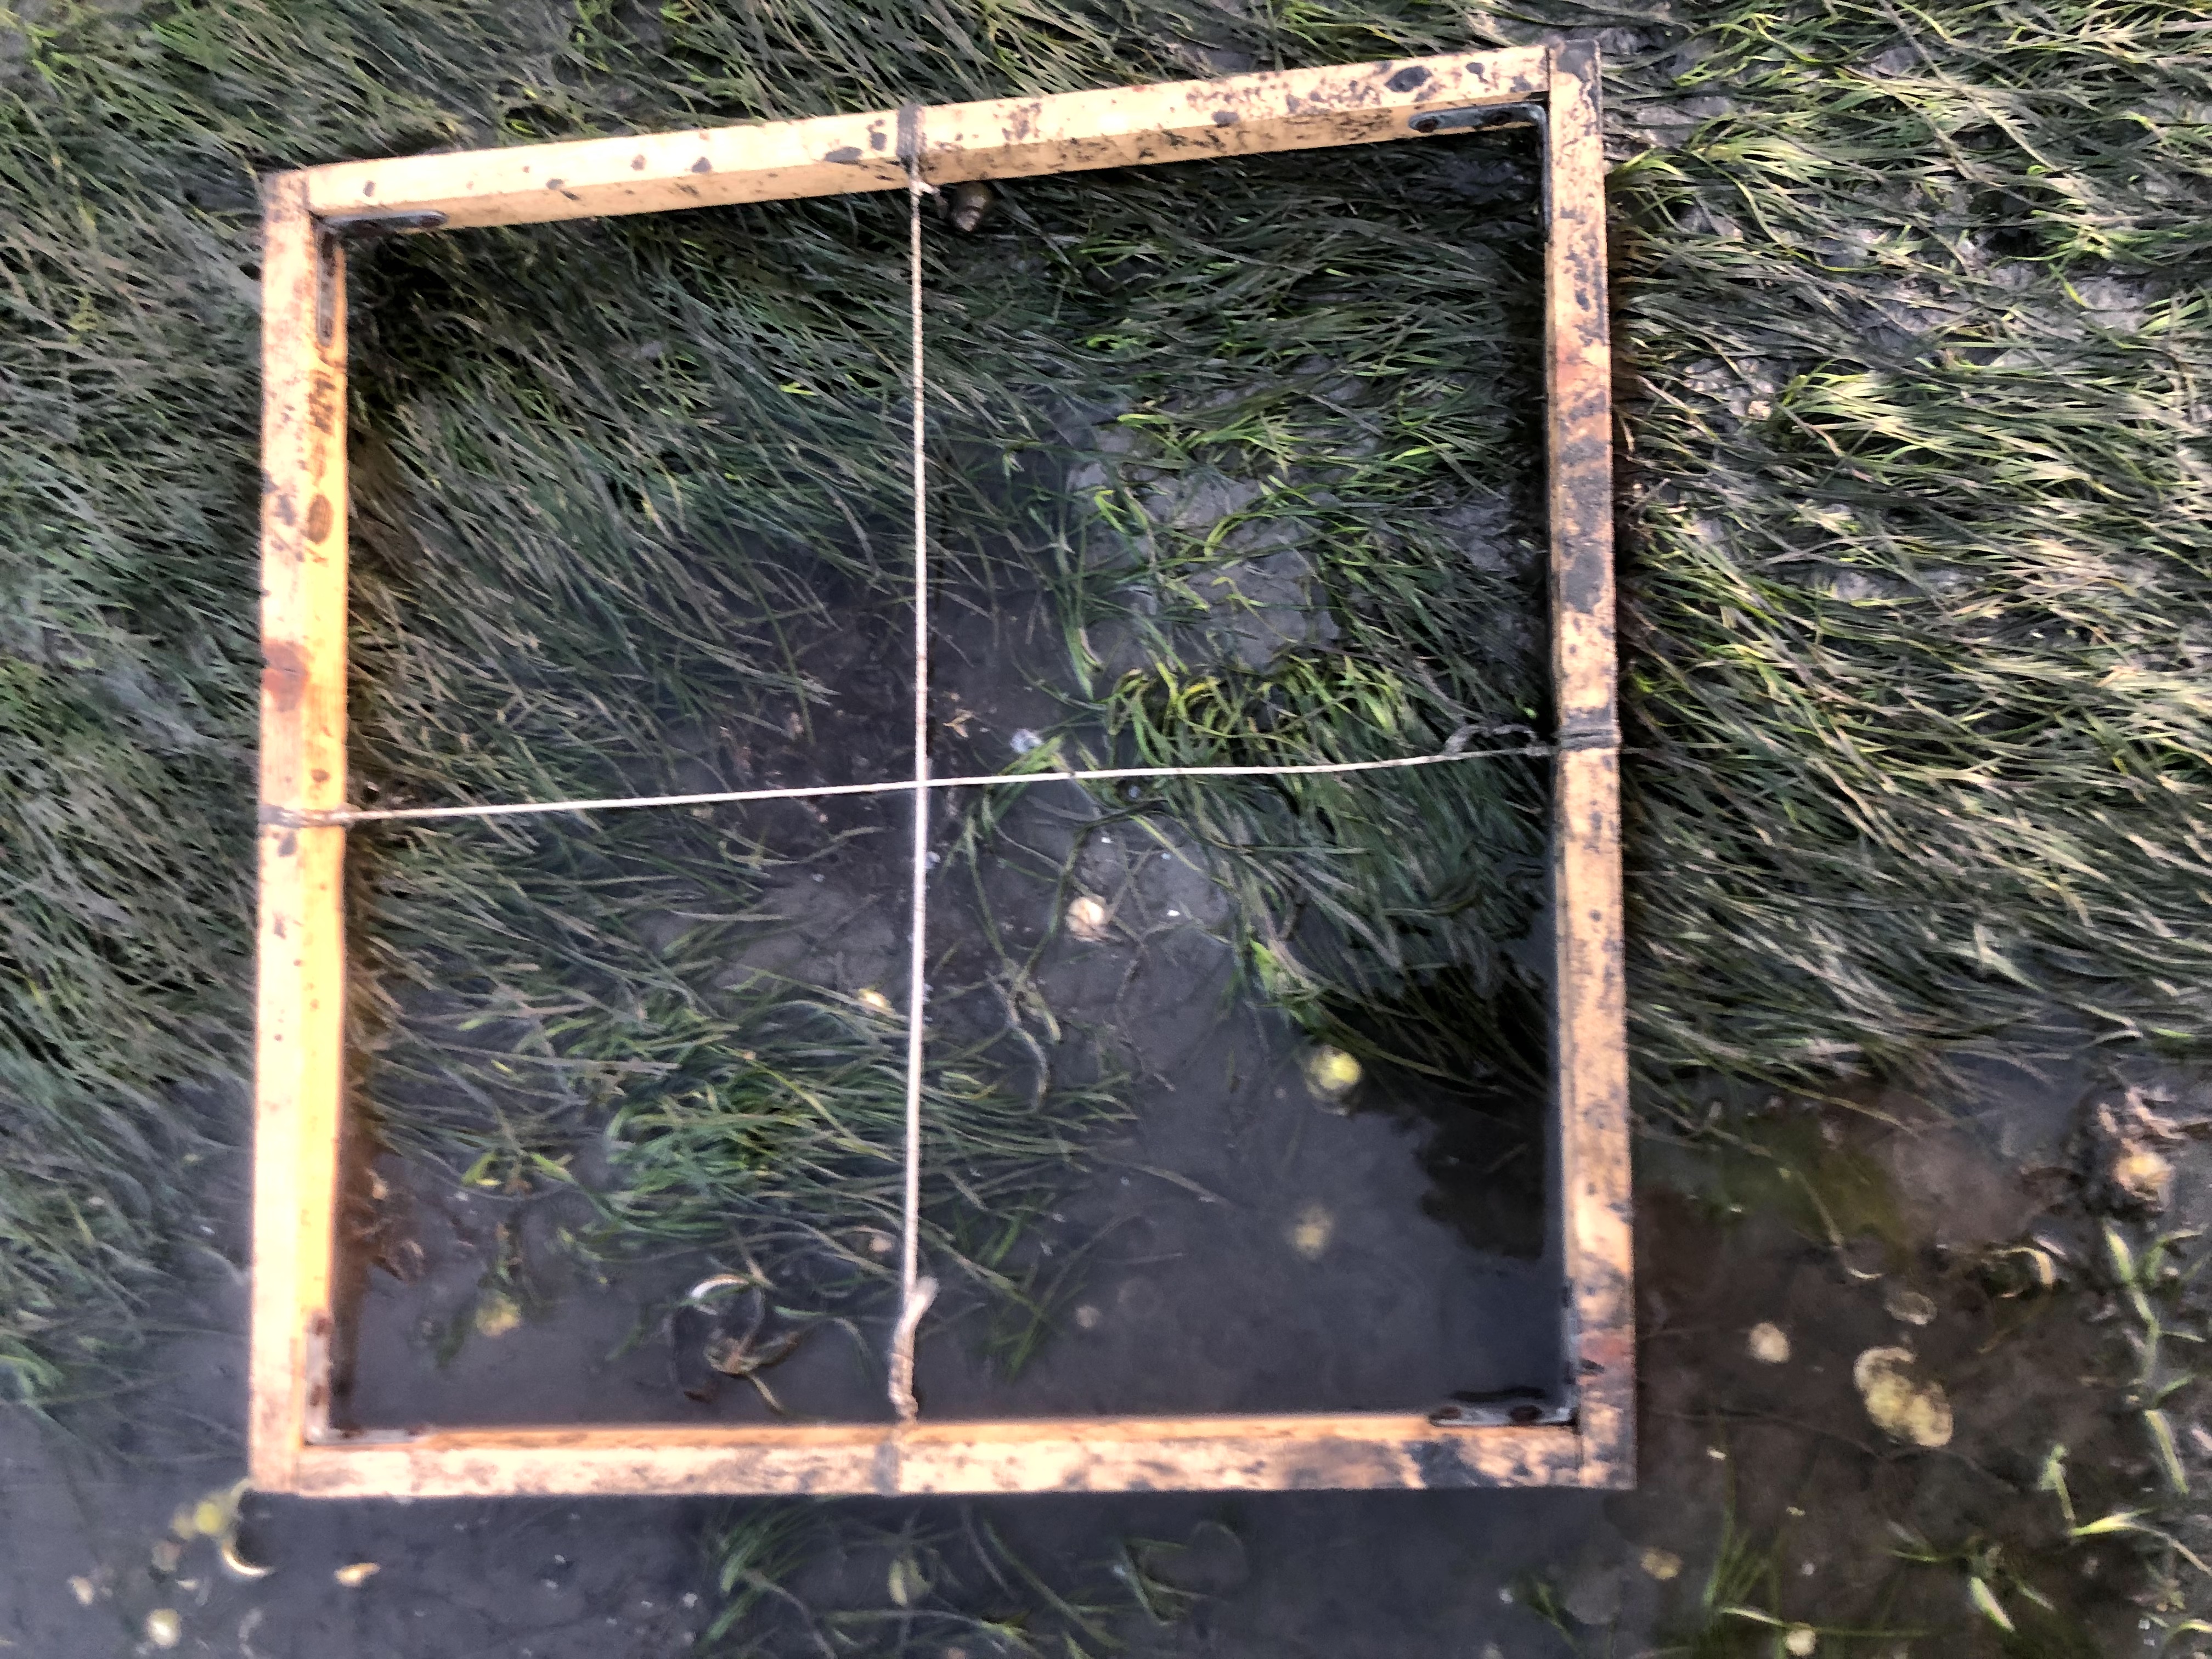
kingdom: Plantae
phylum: Tracheophyta
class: Liliopsida
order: Alismatales
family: Zosteraceae
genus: Zostera
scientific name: Zostera noltii
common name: Dwarf eelgrass
